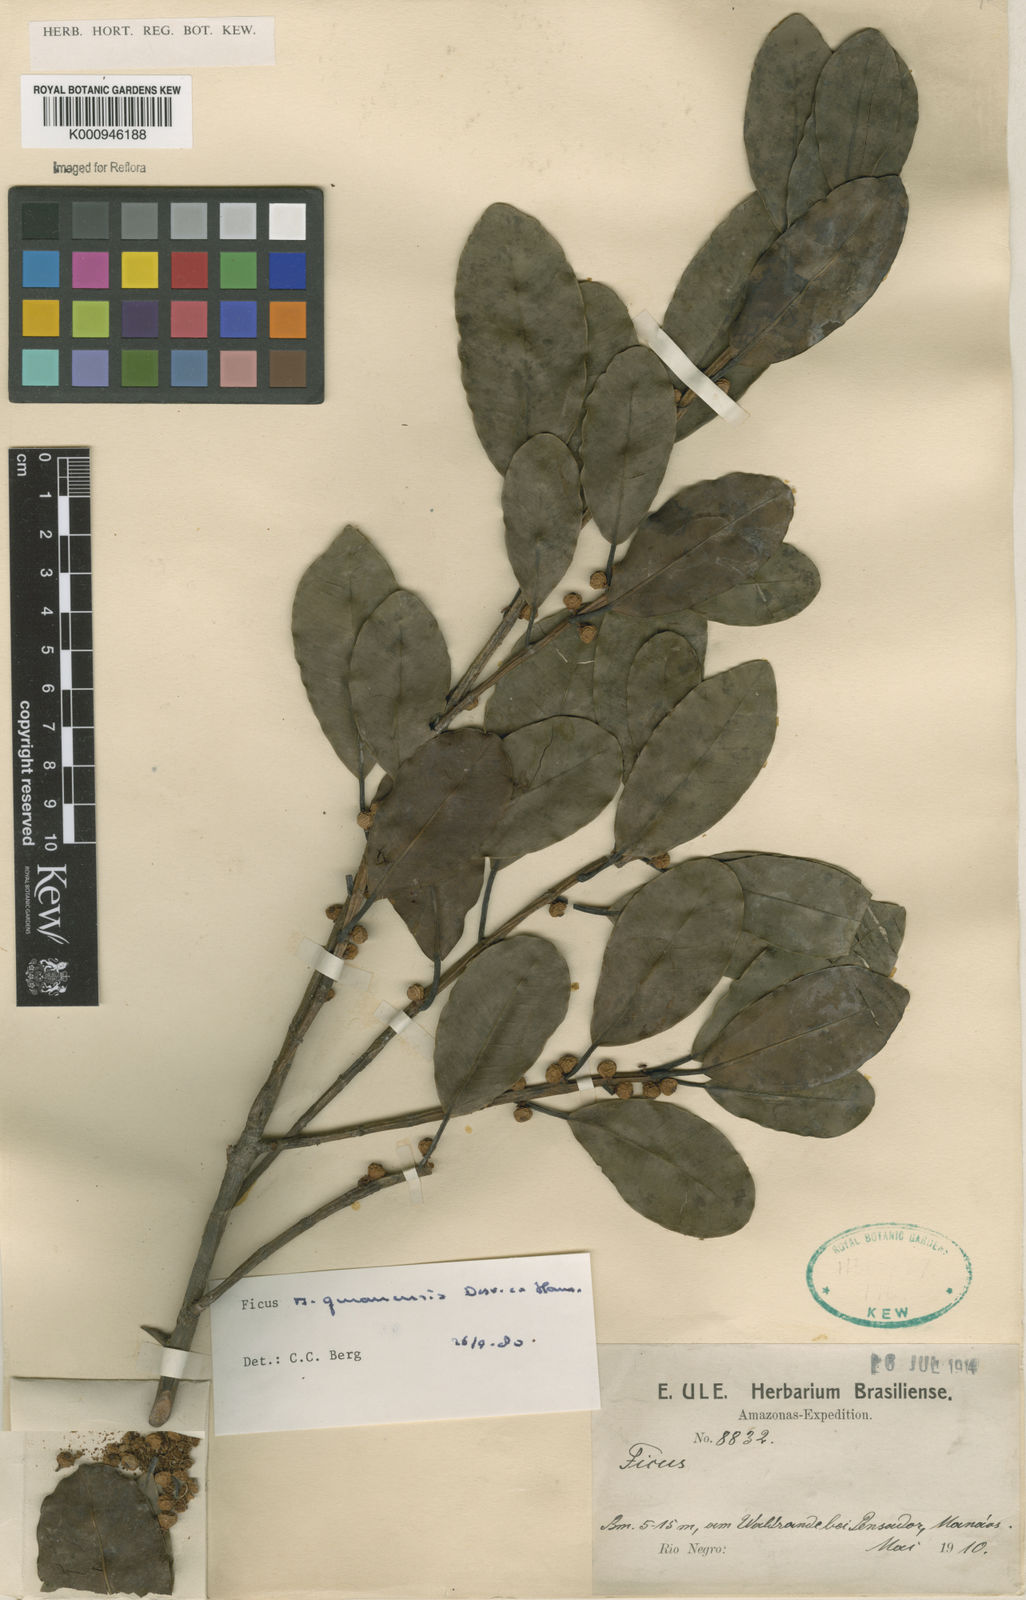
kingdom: Plantae
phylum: Tracheophyta
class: Magnoliopsida
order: Rosales
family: Moraceae
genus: Ficus
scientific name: Ficus americana
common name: Jamaican cherry fig
